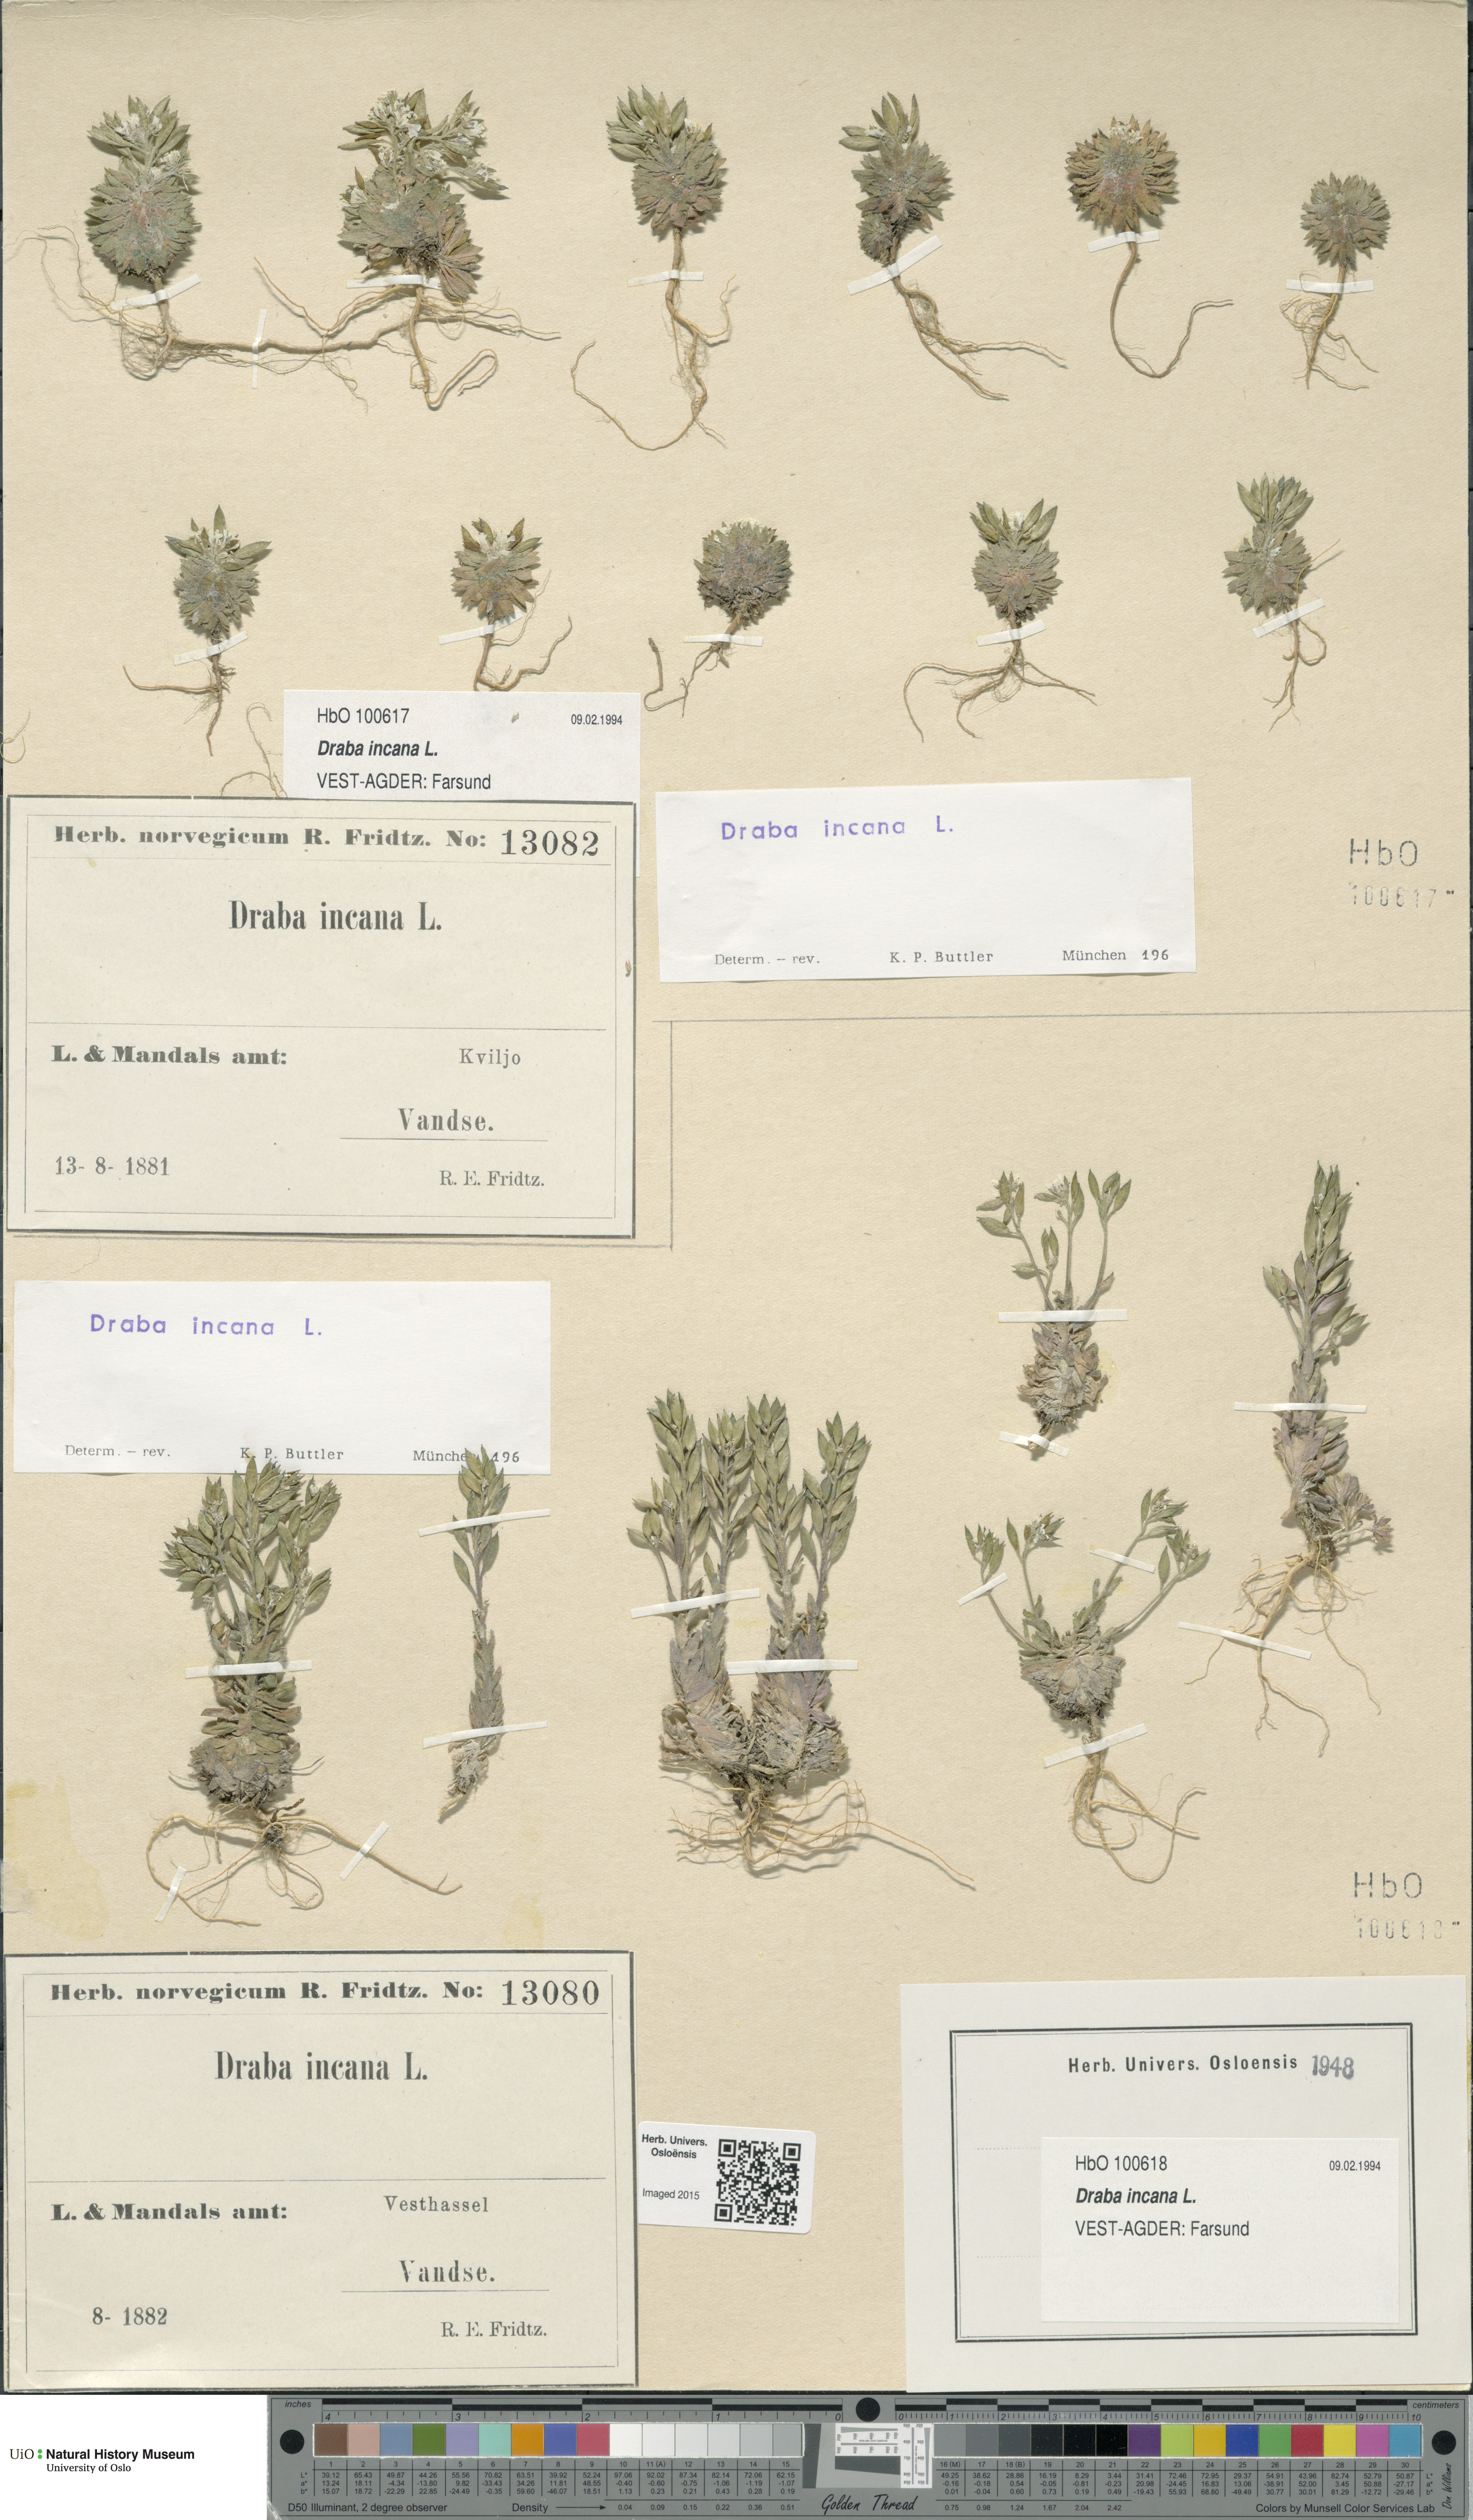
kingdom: Plantae
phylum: Tracheophyta
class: Magnoliopsida
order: Brassicales
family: Brassicaceae
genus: Draba
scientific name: Draba incana
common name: Hoary whitlow-grass
